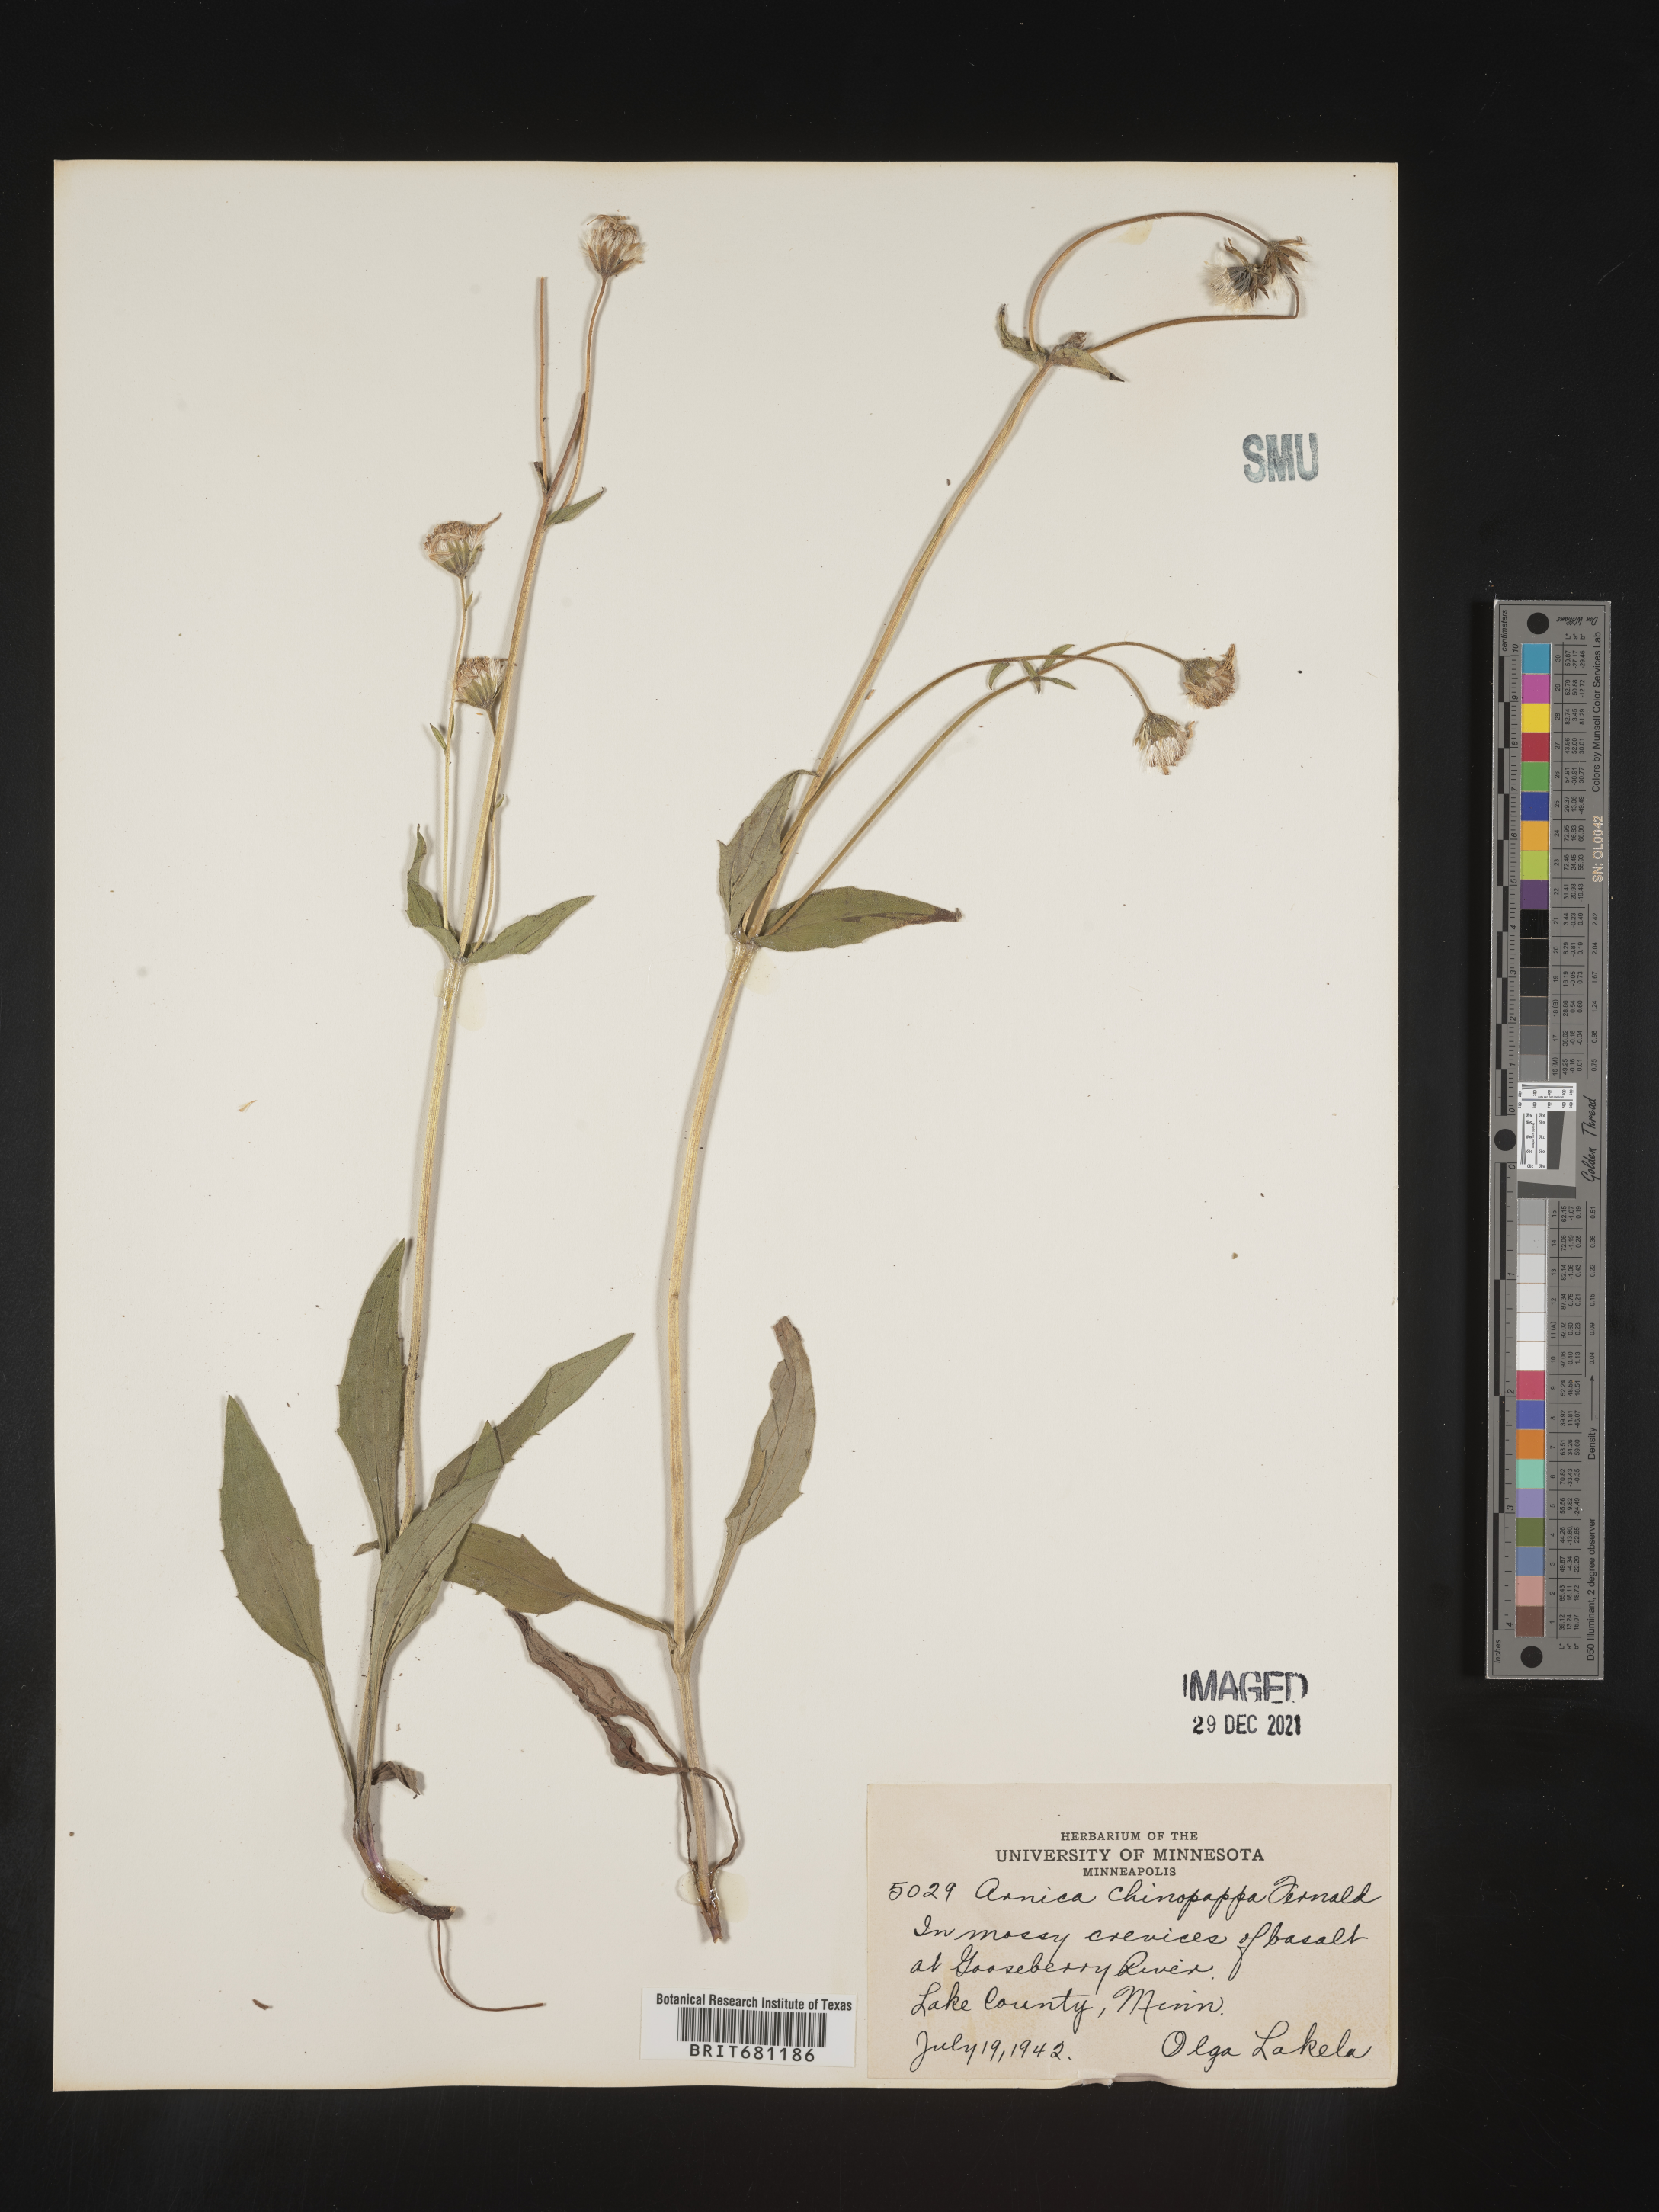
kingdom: Plantae
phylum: Tracheophyta
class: Magnoliopsida
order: Asterales
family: Asteraceae
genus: Arnica
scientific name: Arnica lonchophylla
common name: Northern arnica
